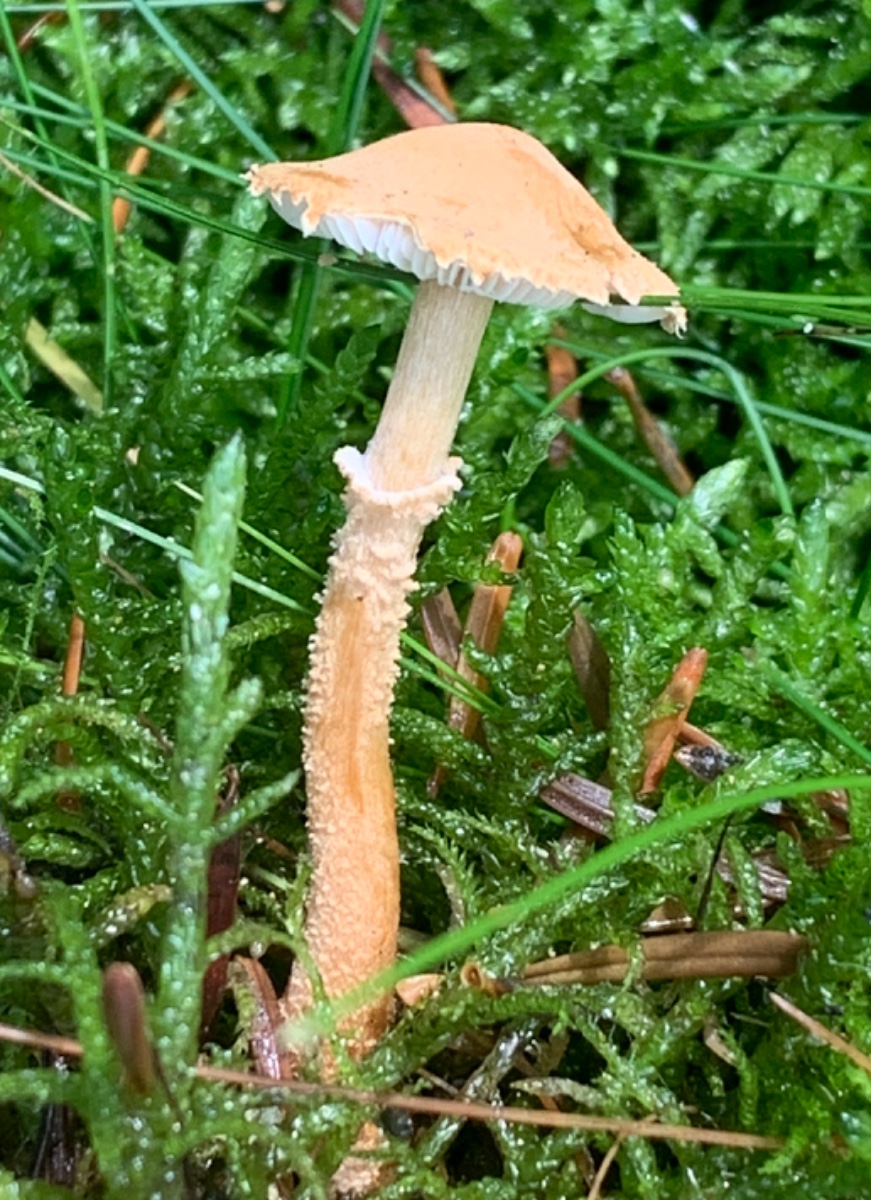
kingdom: Fungi
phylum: Basidiomycota
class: Agaricomycetes
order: Agaricales
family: Tricholomataceae
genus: Cystoderma
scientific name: Cystoderma amianthinum
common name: okkergul grynhat
